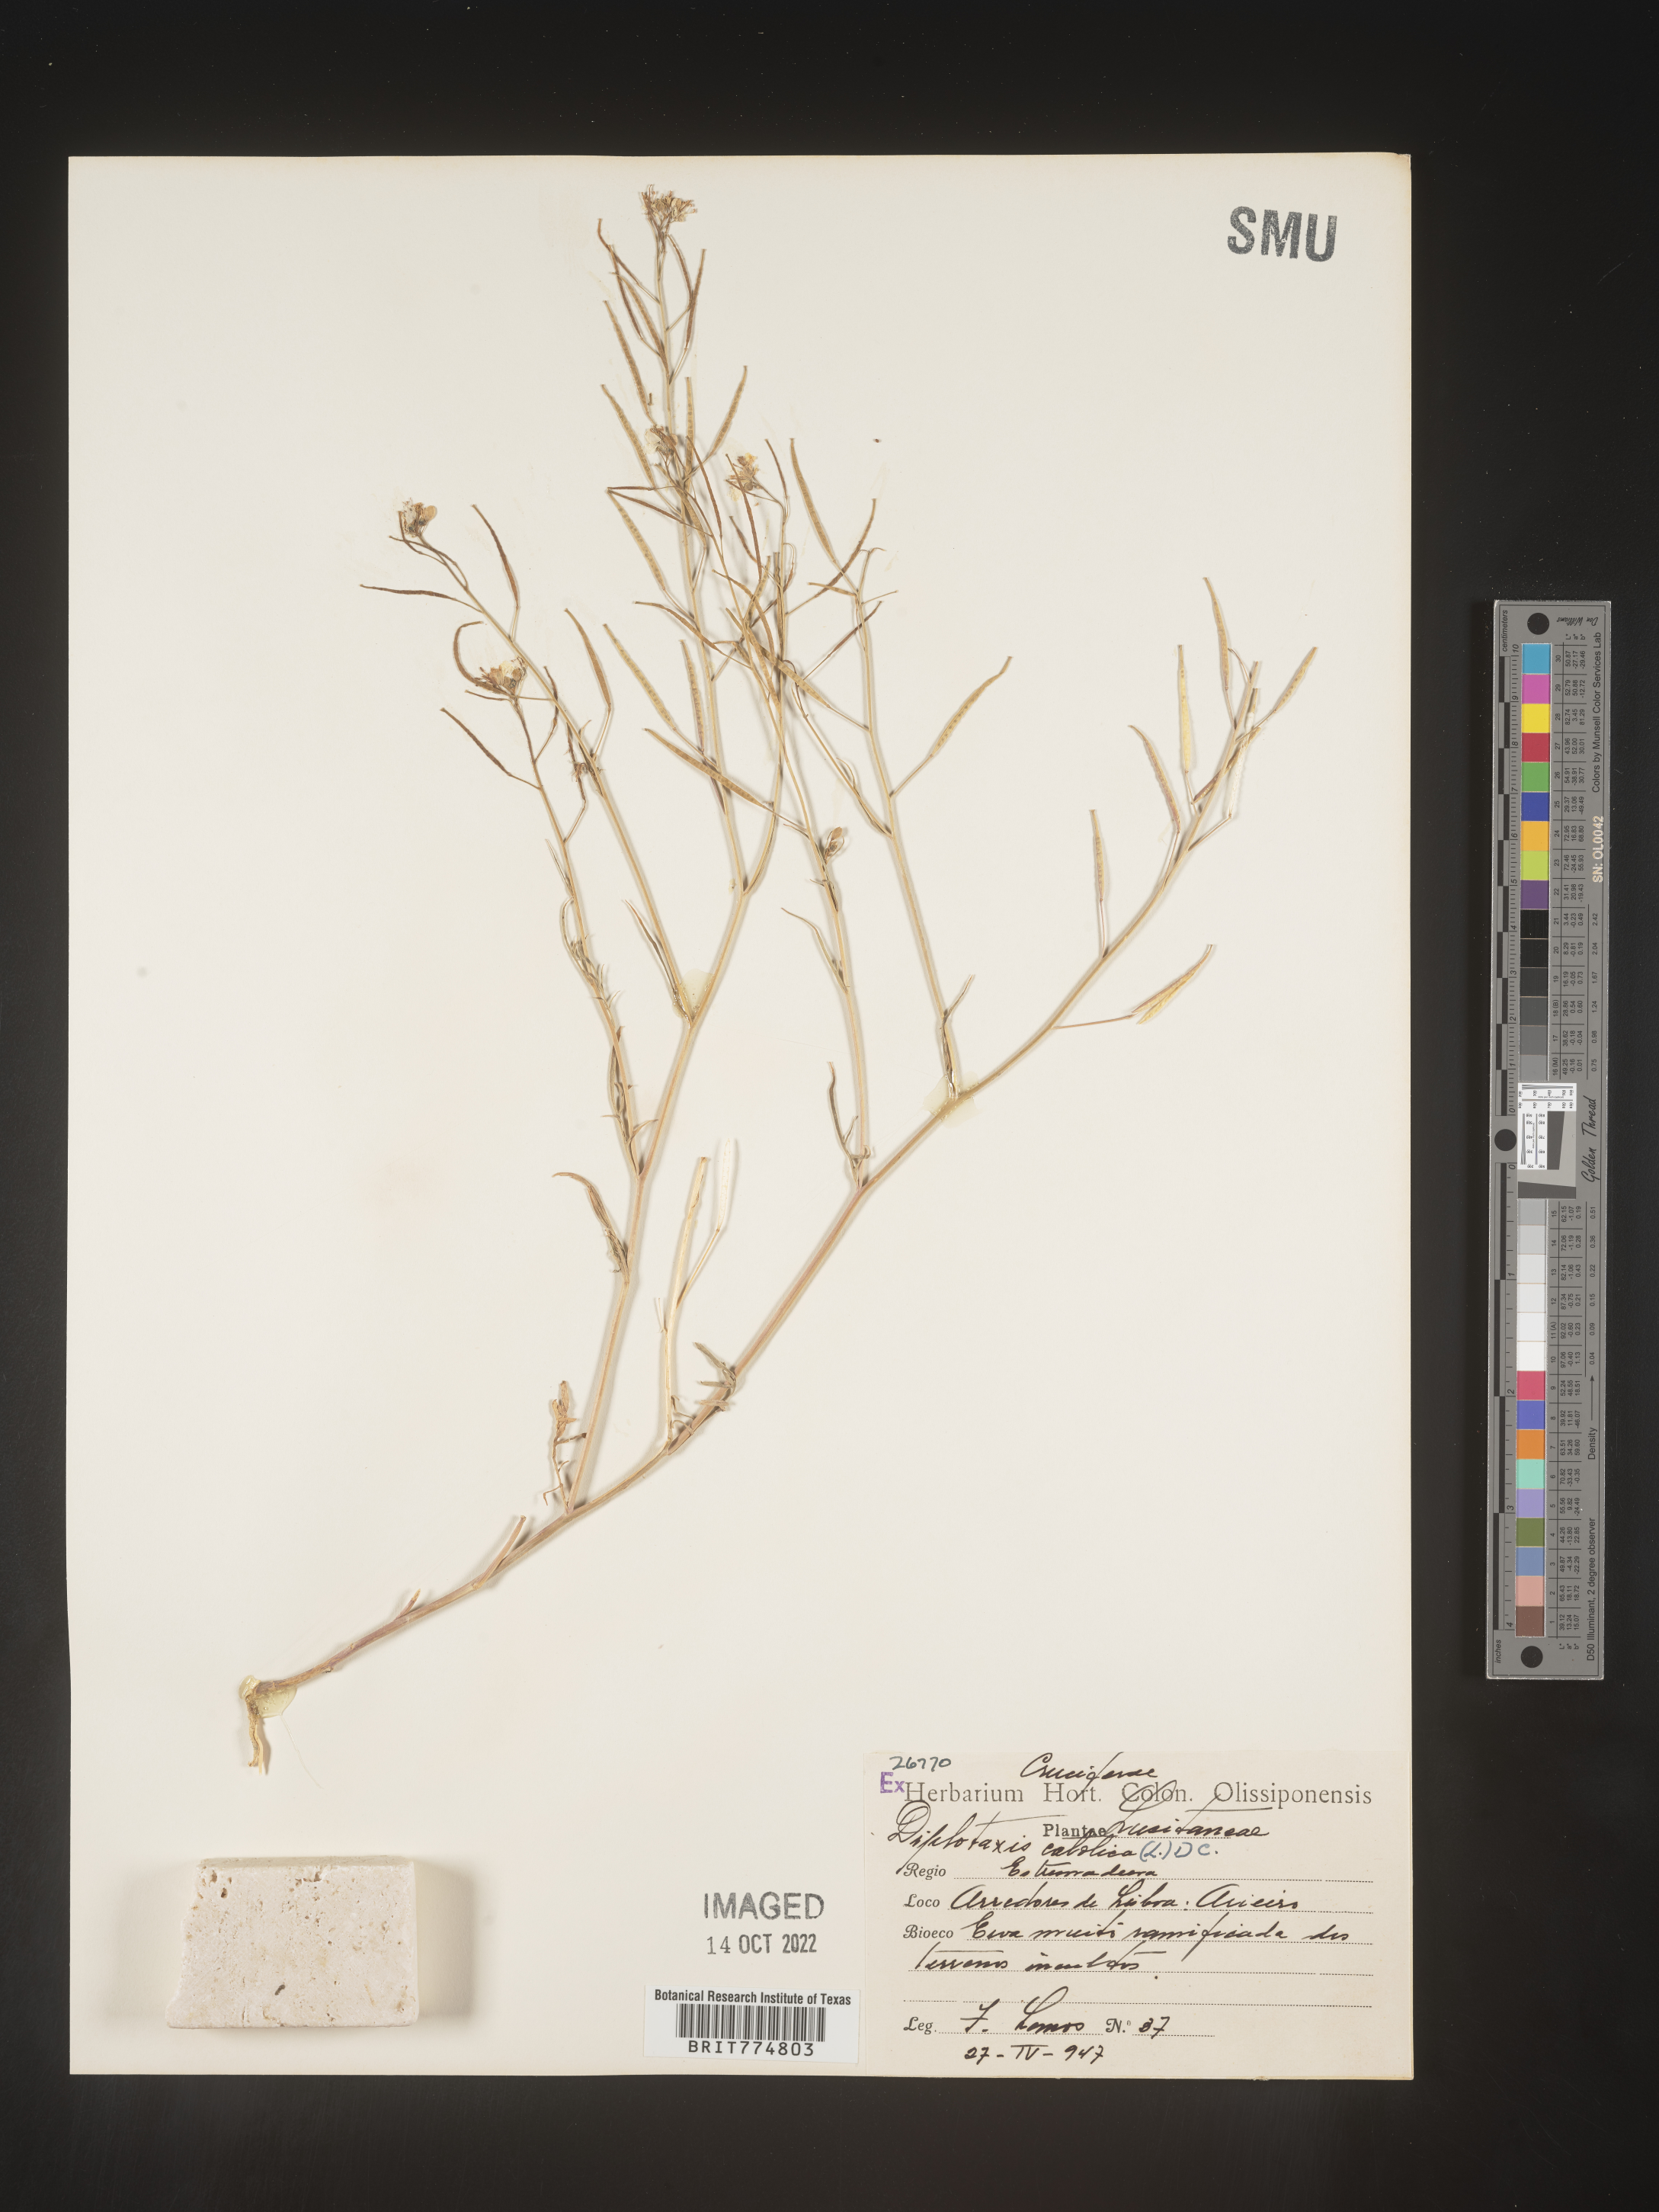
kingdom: Plantae
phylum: Tracheophyta
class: Magnoliopsida
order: Brassicales
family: Brassicaceae
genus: Diplotaxis
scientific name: Diplotaxis
